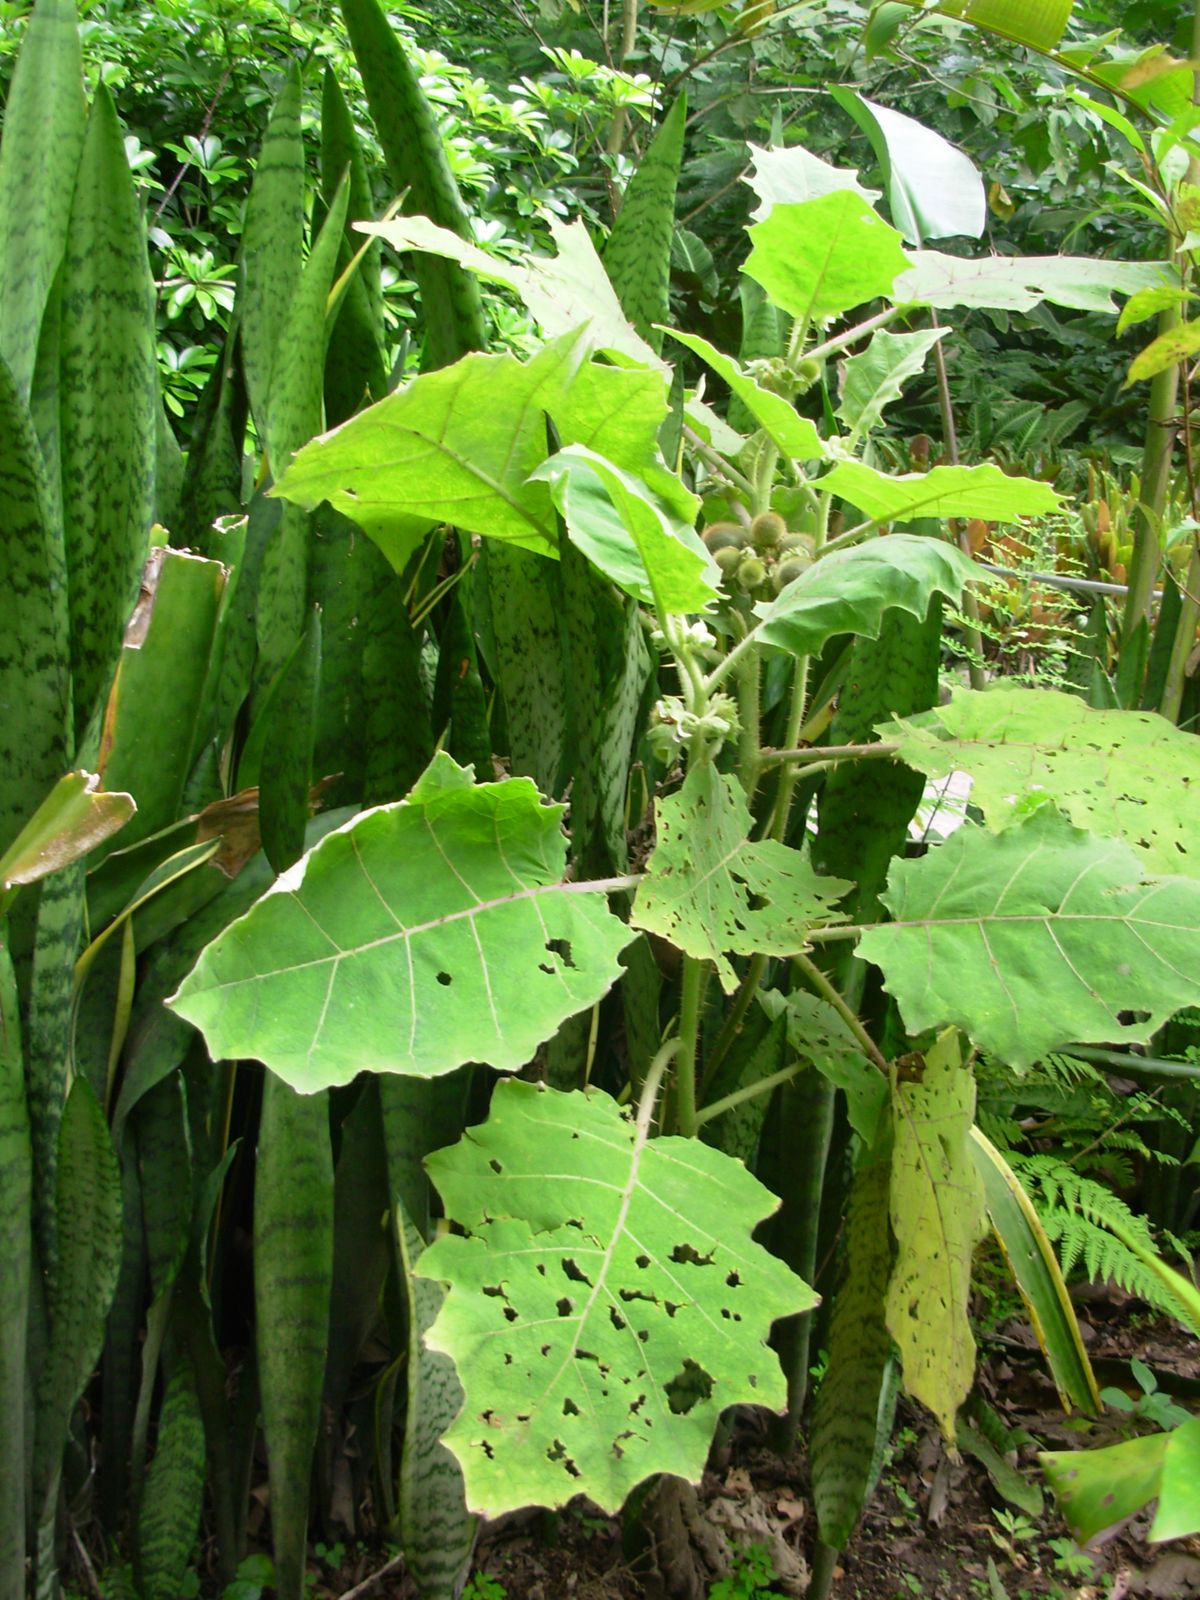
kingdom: Plantae
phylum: Tracheophyta
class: Magnoliopsida
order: Solanales
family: Solanaceae
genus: Solanum
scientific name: Solanum candidum
